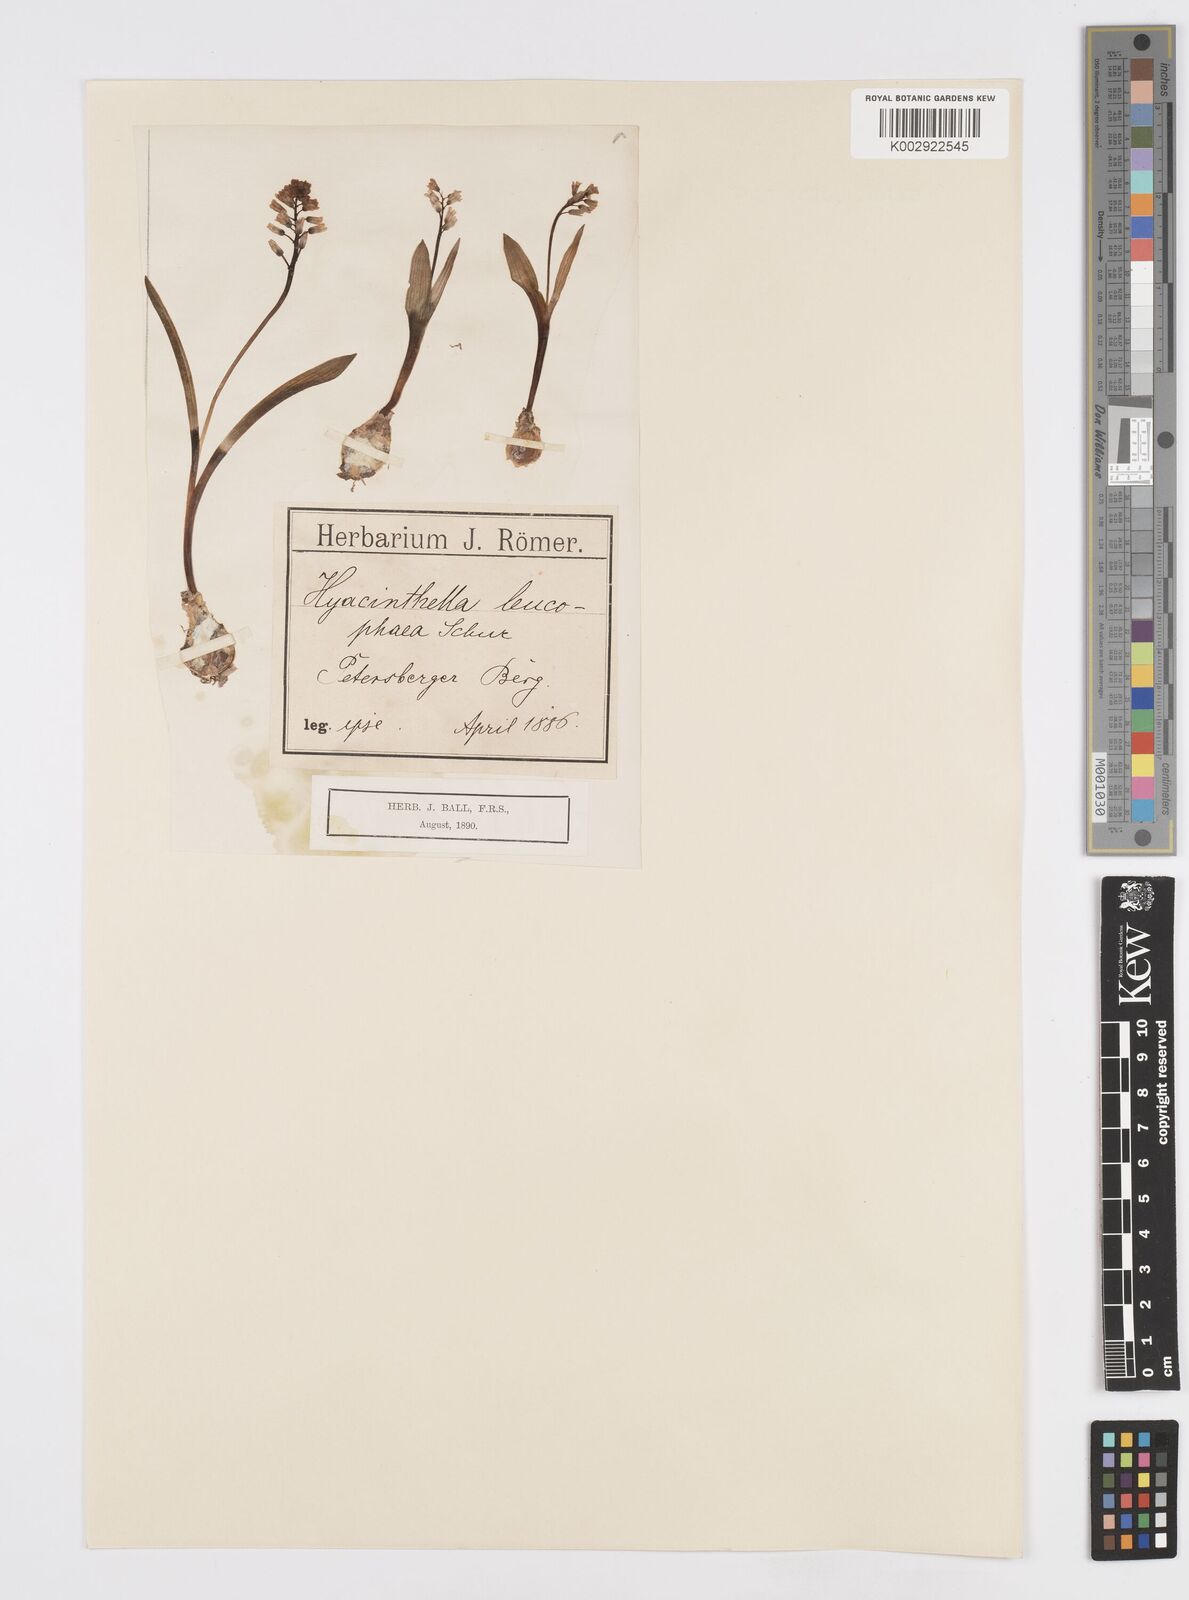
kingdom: Plantae
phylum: Tracheophyta
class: Liliopsida
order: Asparagales
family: Asparagaceae
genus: Hyacinthella
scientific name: Hyacinthella leucophaea
